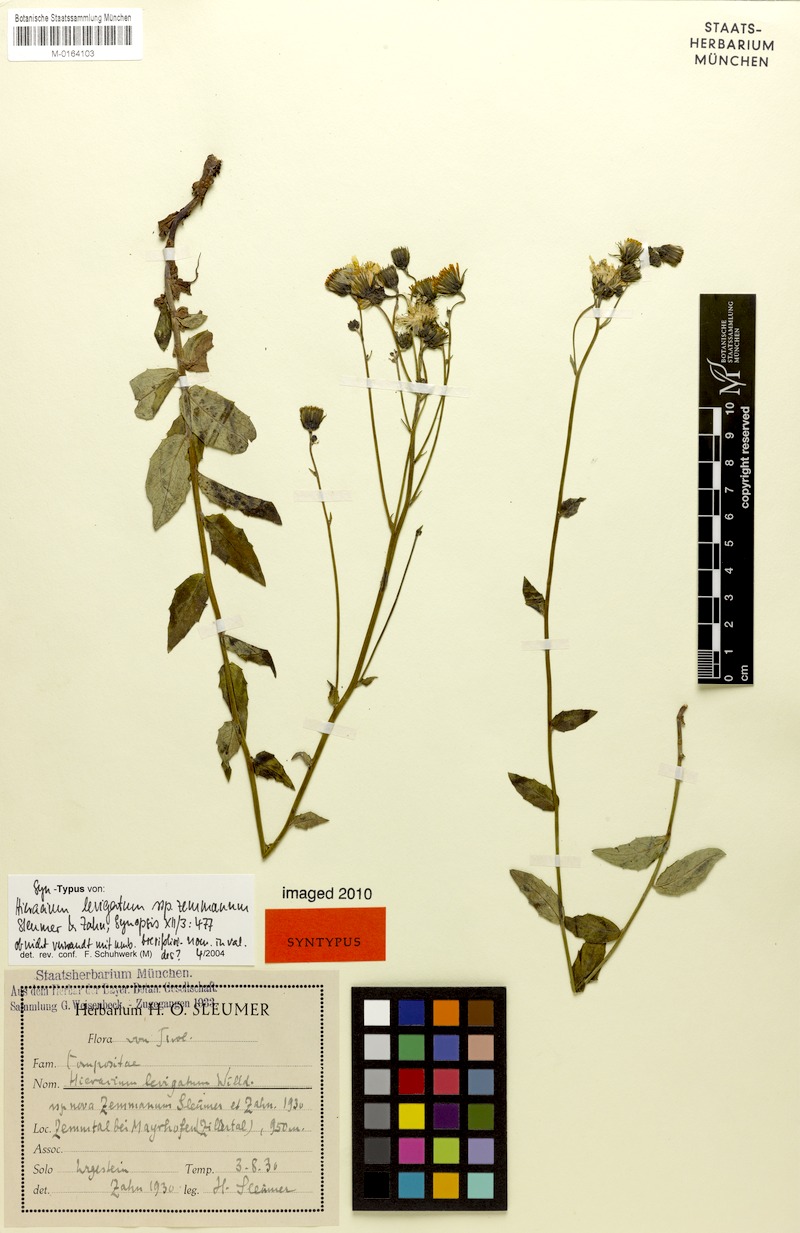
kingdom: Plantae
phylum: Tracheophyta
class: Magnoliopsida
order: Asterales
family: Asteraceae
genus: Hieracium
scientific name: Hieracium laevigatum
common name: Smooth hawkweed
